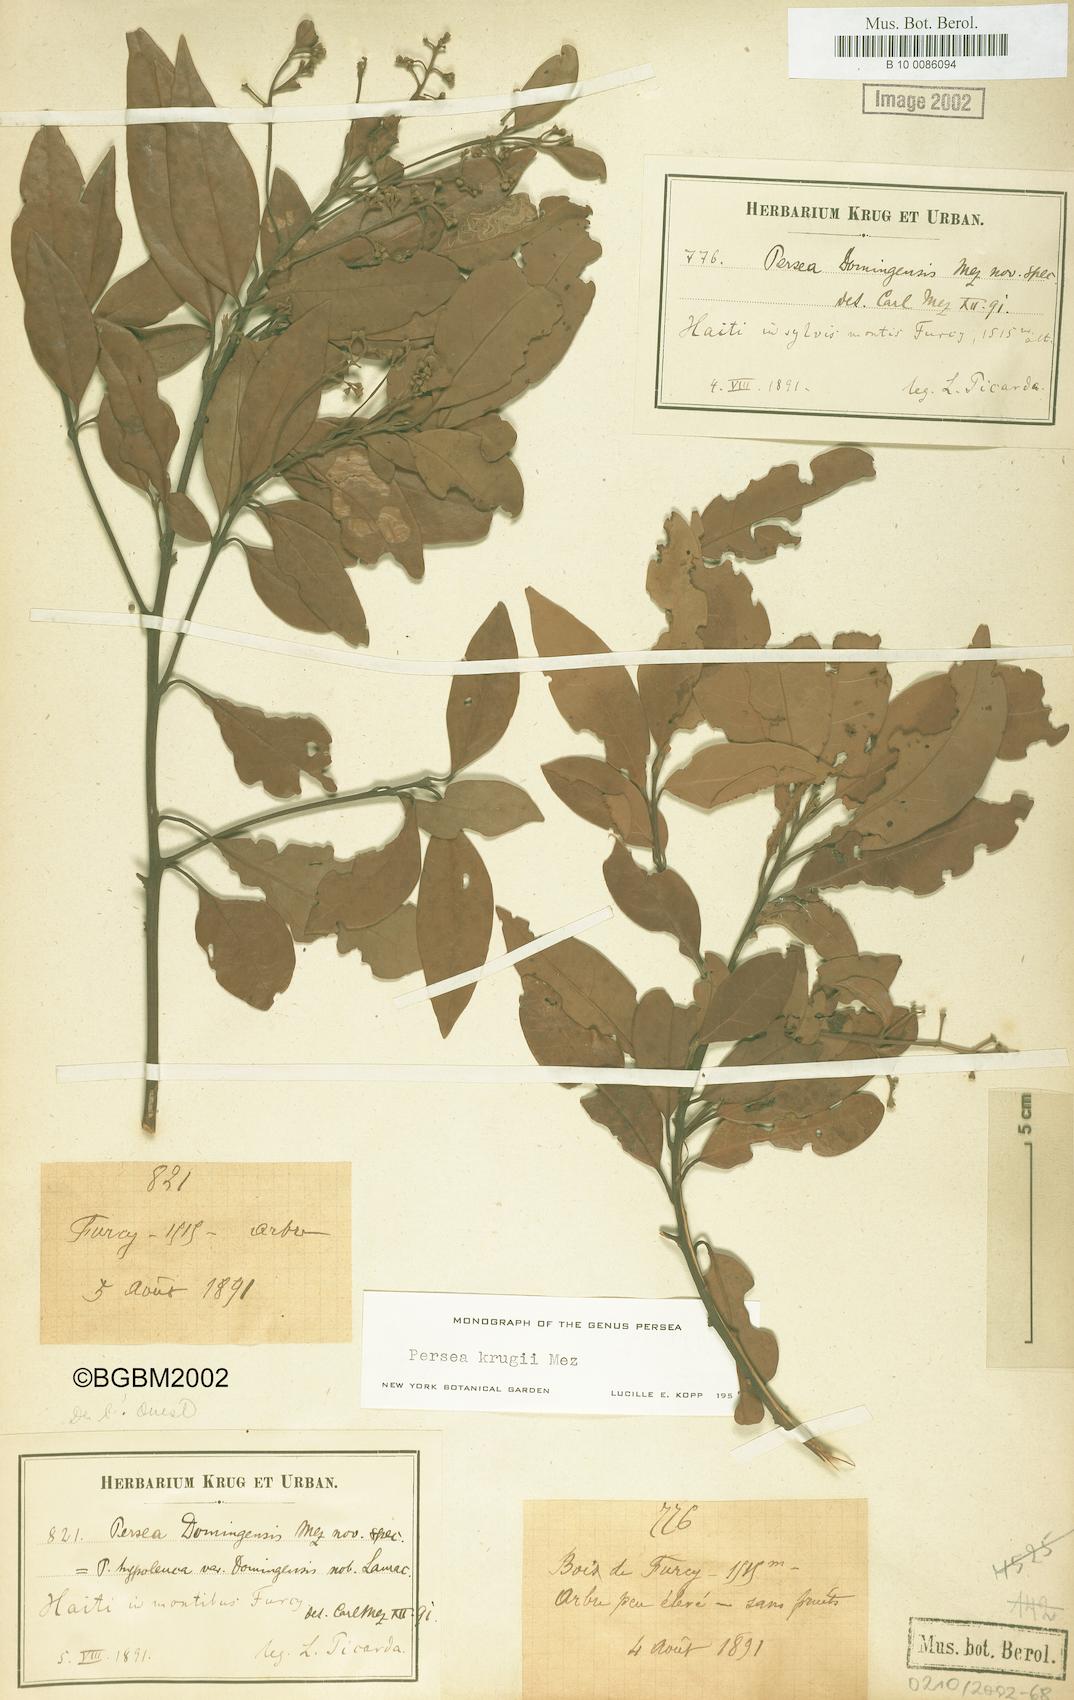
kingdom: Plantae
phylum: Tracheophyta
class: Magnoliopsida
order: Laurales
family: Lauraceae
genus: Persea
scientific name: Persea krugii
